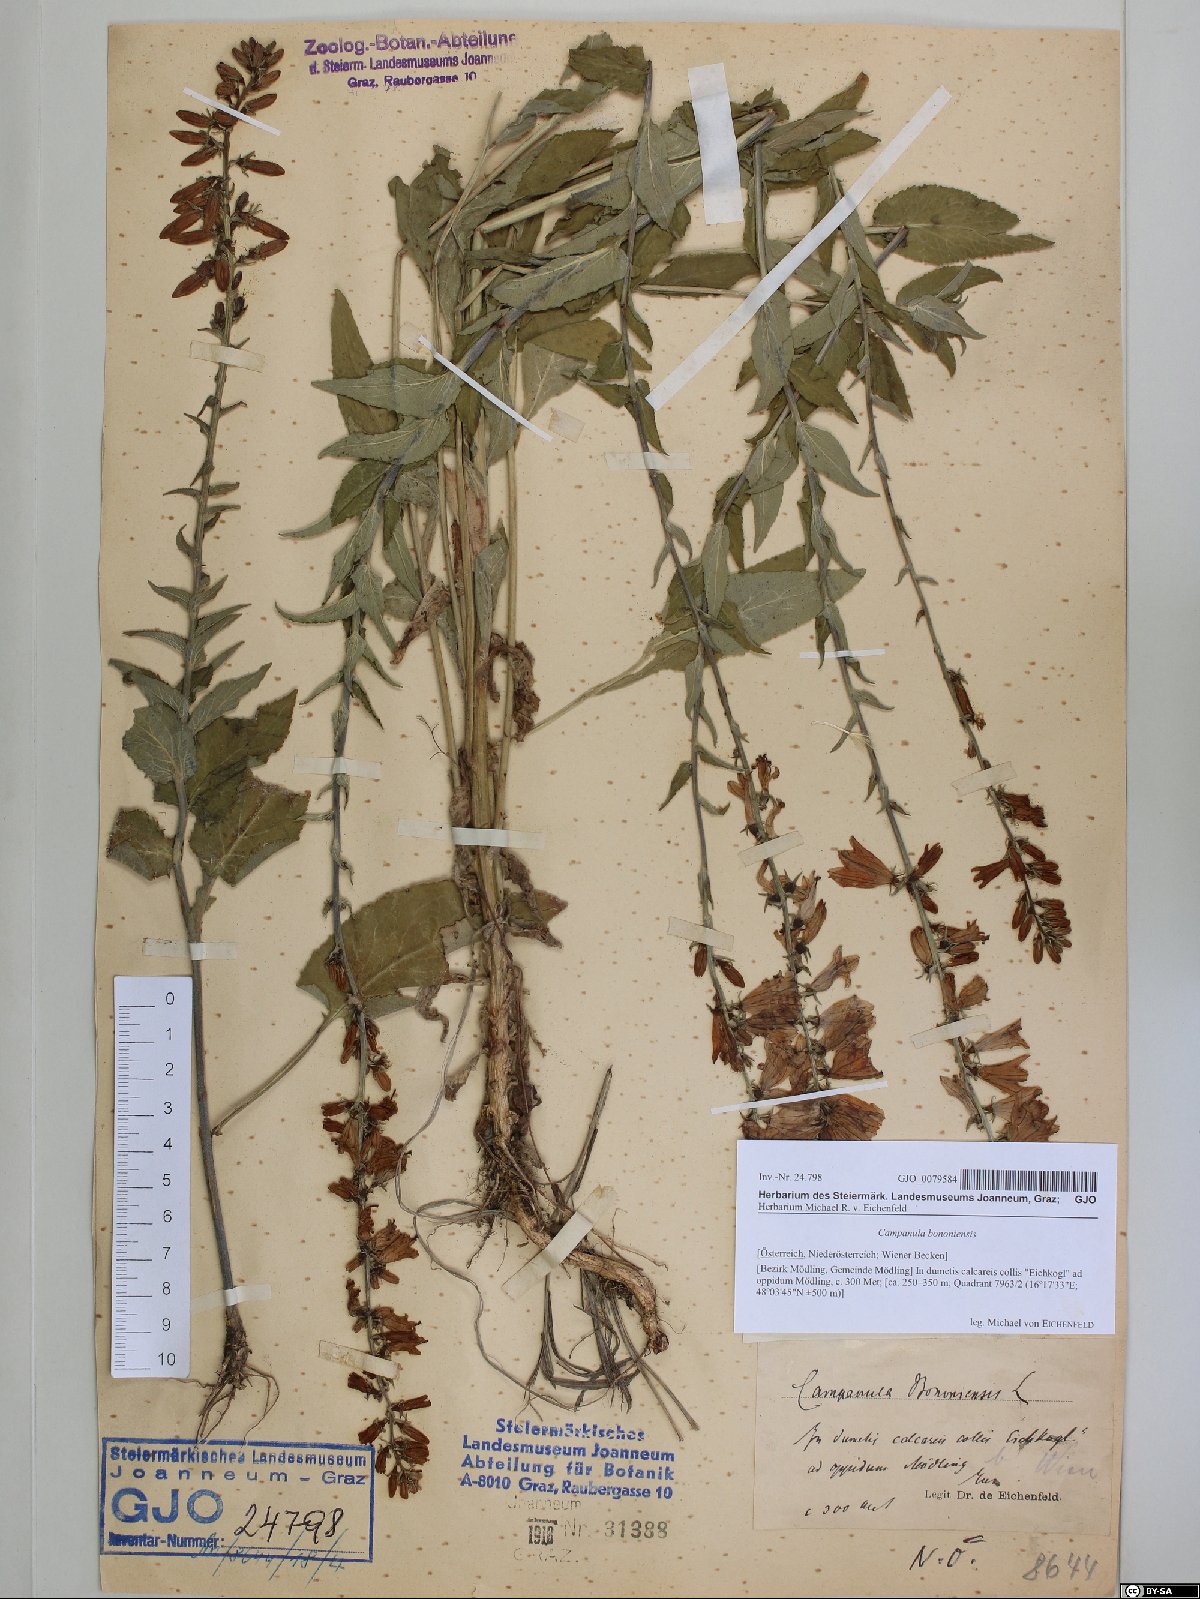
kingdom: Plantae
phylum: Tracheophyta
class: Magnoliopsida
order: Asterales
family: Campanulaceae
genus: Campanula
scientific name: Campanula bononiensis
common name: Pale bellflower
